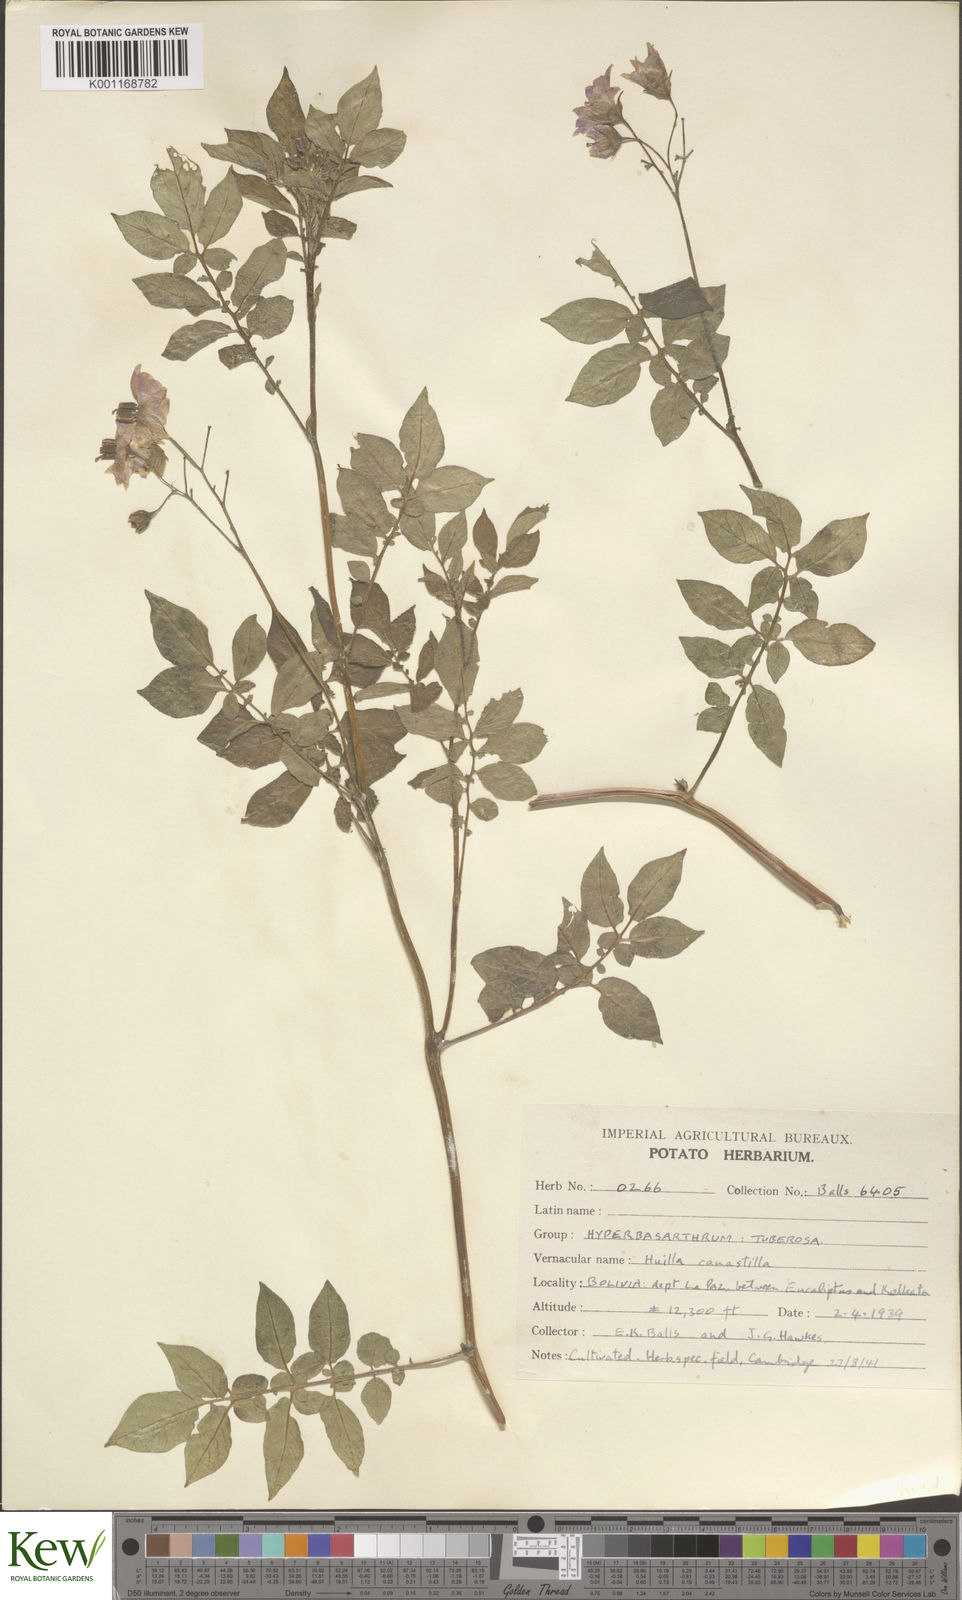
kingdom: Plantae
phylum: Tracheophyta
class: Magnoliopsida
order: Solanales
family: Solanaceae
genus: Solanum
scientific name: Solanum chaucha
